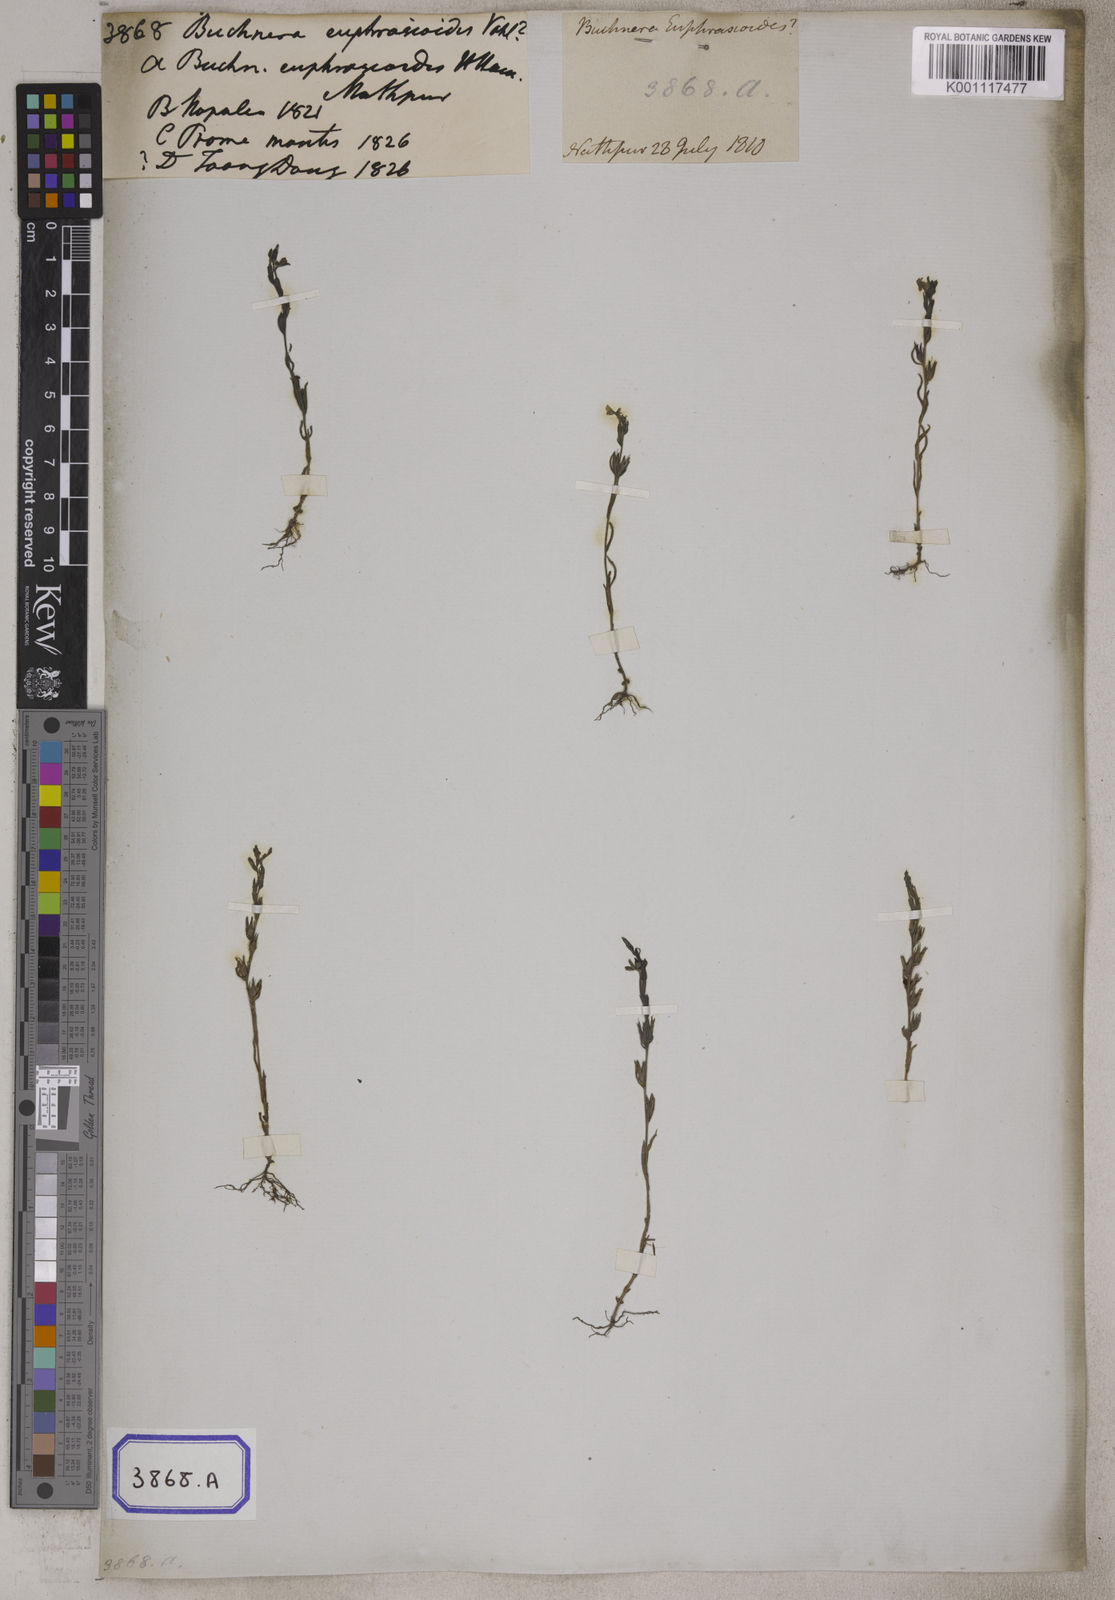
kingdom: Plantae
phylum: Tracheophyta
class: Magnoliopsida
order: Lamiales
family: Orobanchaceae
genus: Striga
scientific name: Striga angustifolia
